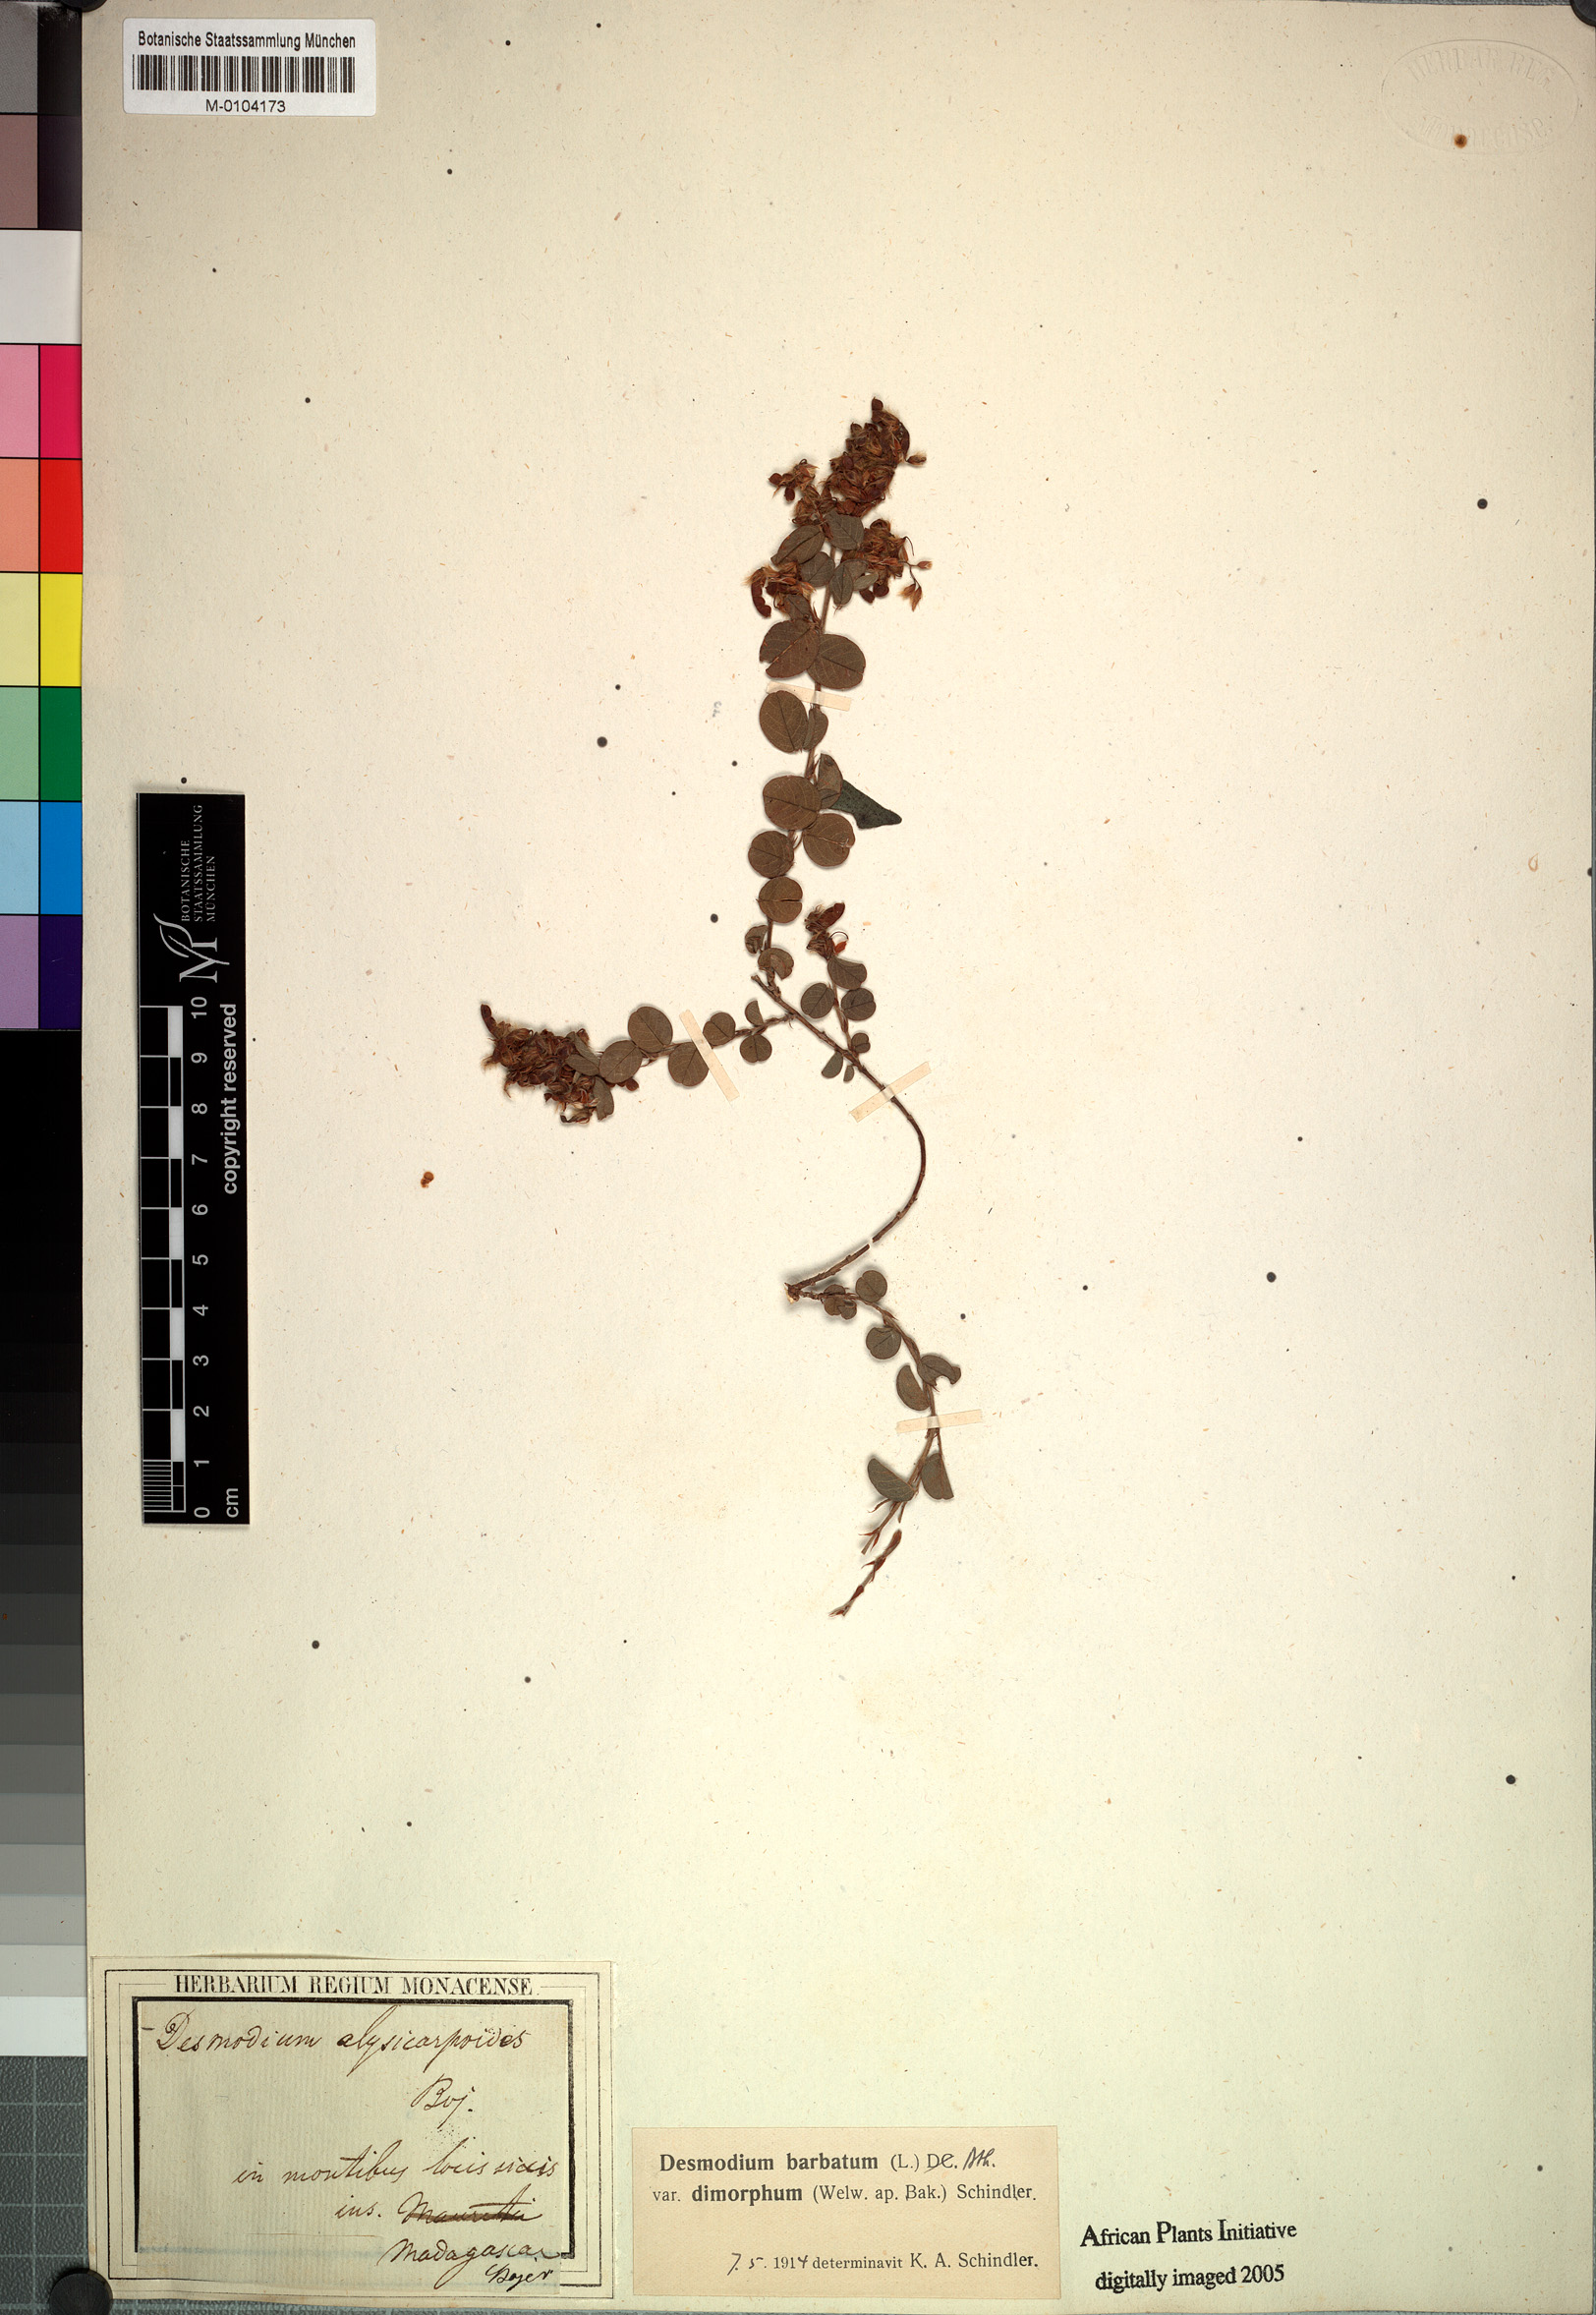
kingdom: Plantae
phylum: Tracheophyta
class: Magnoliopsida
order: Fabales
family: Fabaceae
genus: Alysicarpus
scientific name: Alysicarpus parviflorus
